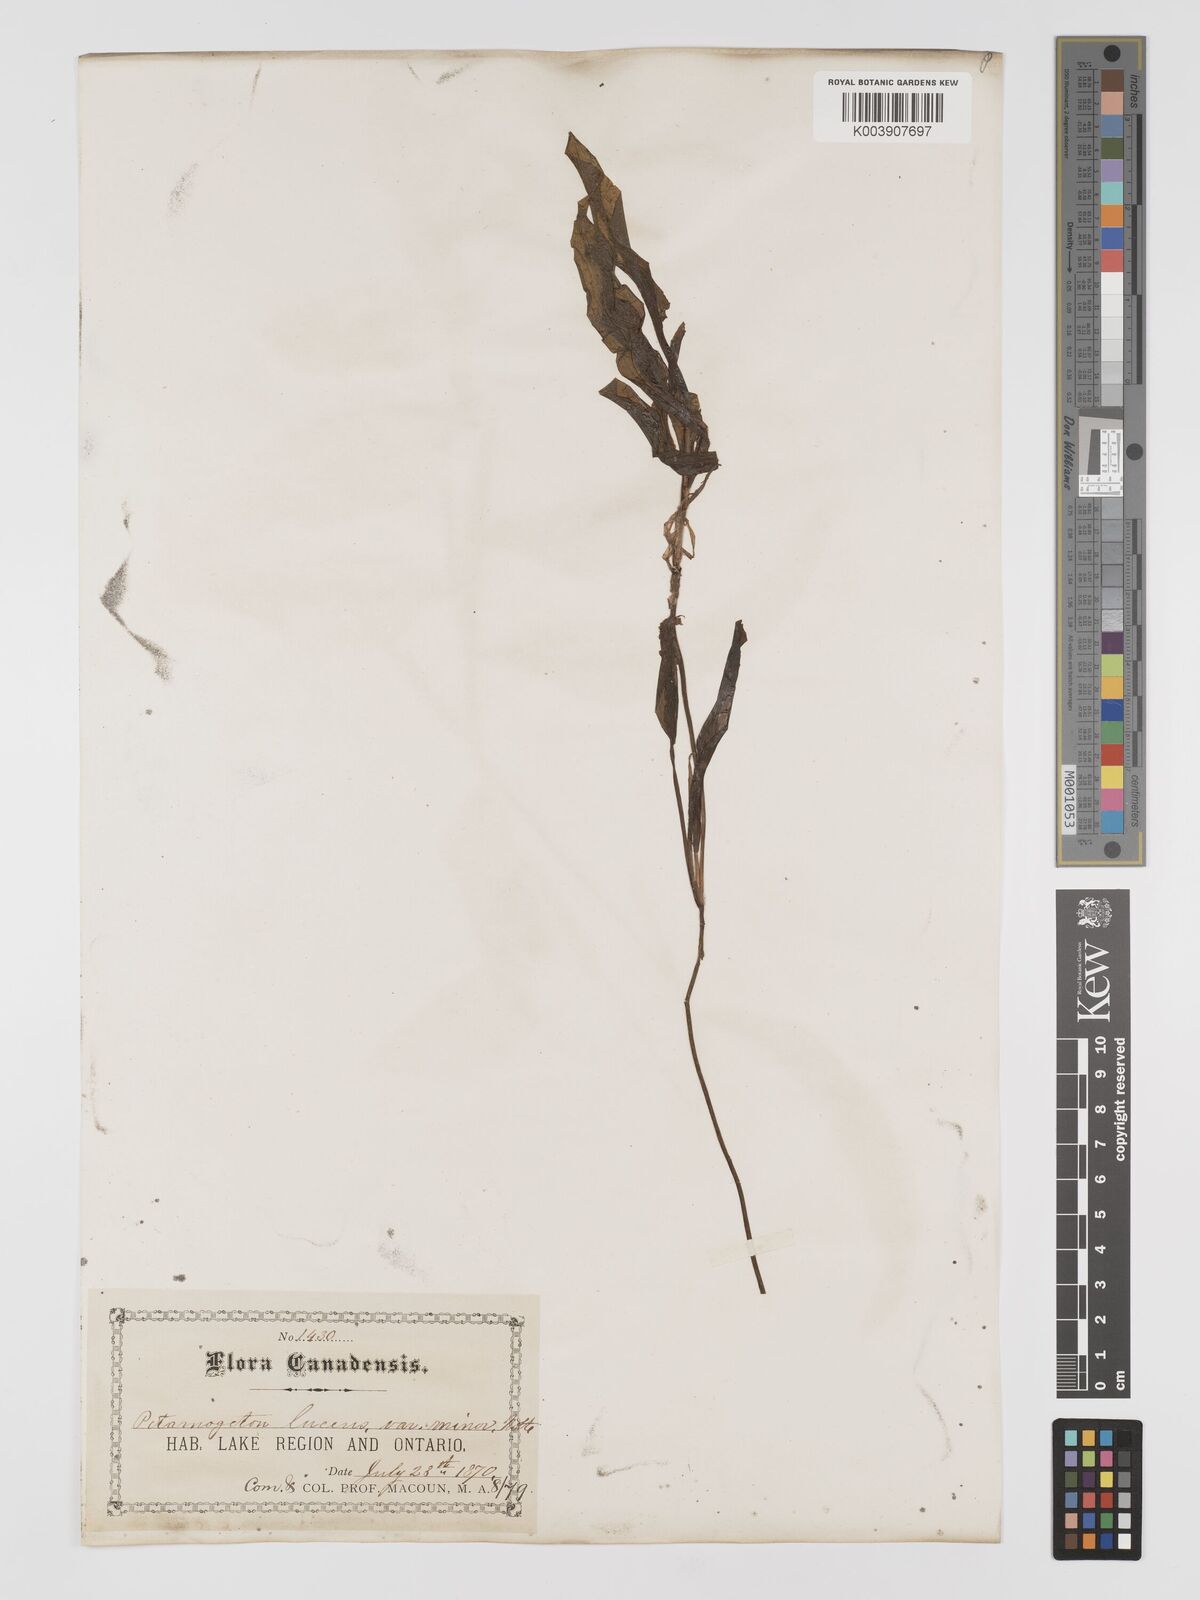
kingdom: Plantae
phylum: Tracheophyta
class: Liliopsida
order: Alismatales
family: Potamogetonaceae
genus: Potamogeton
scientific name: Potamogeton lucens
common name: Shining pondweed
